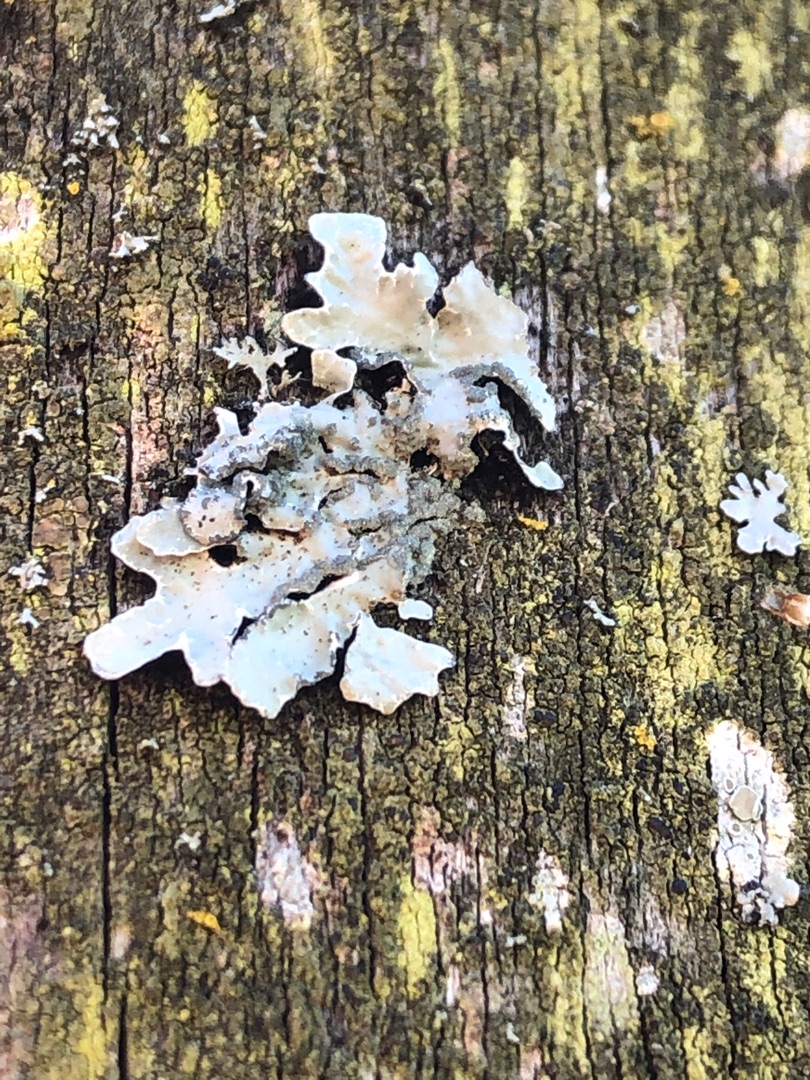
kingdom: Fungi
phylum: Ascomycota
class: Lecanoromycetes
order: Lecanorales
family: Parmeliaceae
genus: Parmelia
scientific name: Parmelia sulcata
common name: Rynket skållav
